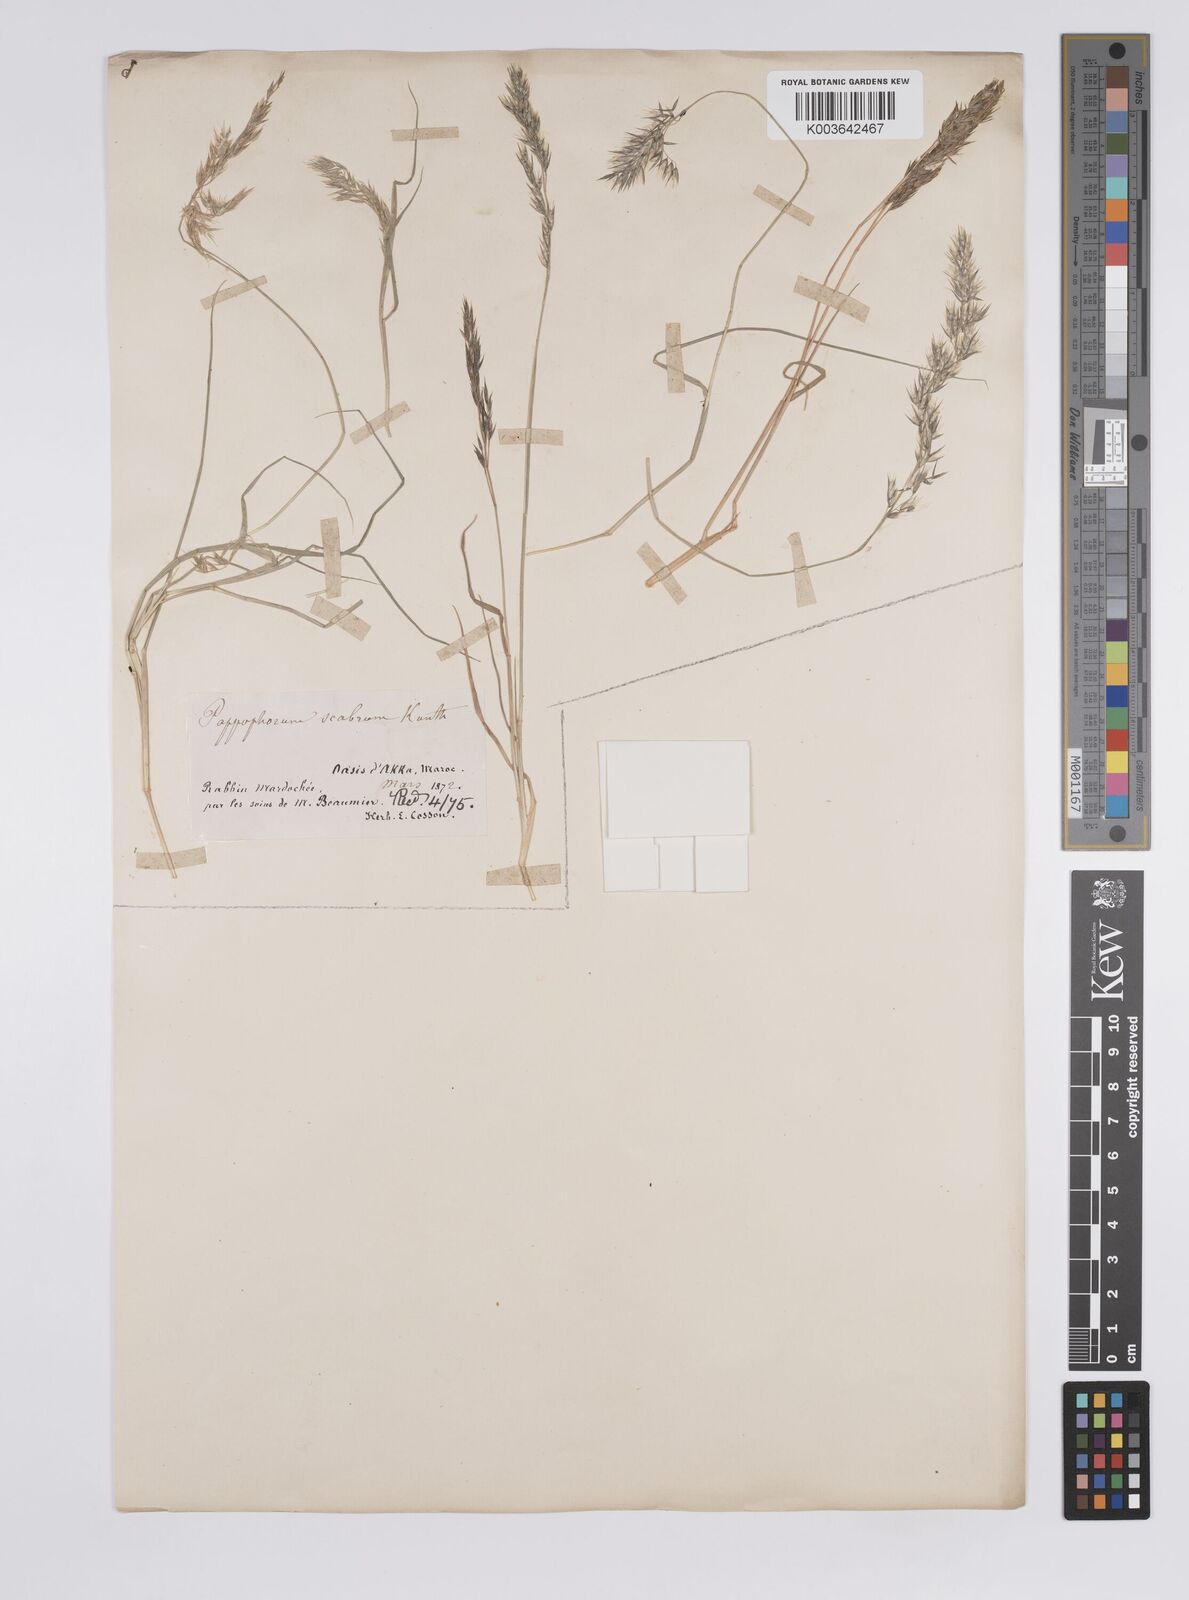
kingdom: Plantae
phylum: Tracheophyta
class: Liliopsida
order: Poales
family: Poaceae
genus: Enneapogon
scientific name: Enneapogon scaber
